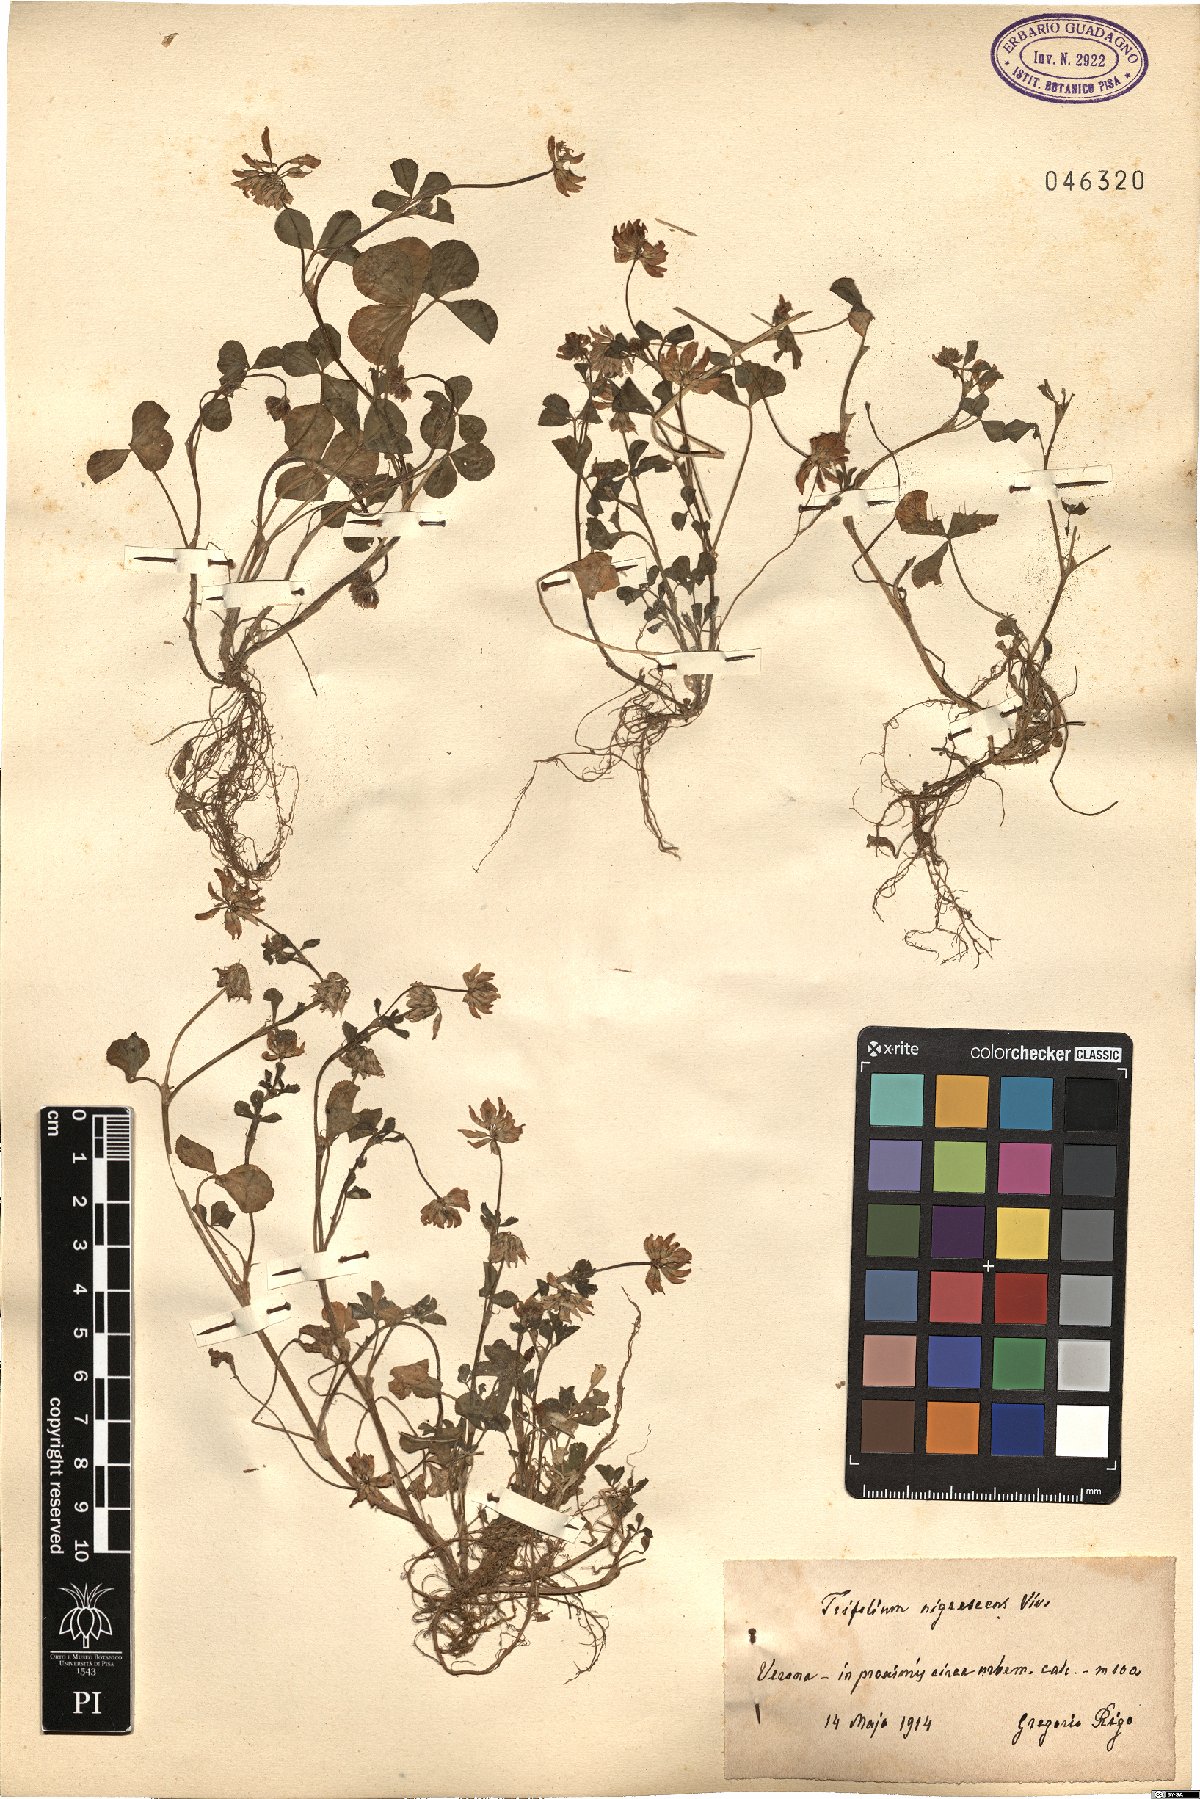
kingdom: Plantae
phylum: Tracheophyta
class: Magnoliopsida
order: Fabales
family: Fabaceae
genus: Trifolium
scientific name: Trifolium nigrescens
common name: Small white clover
